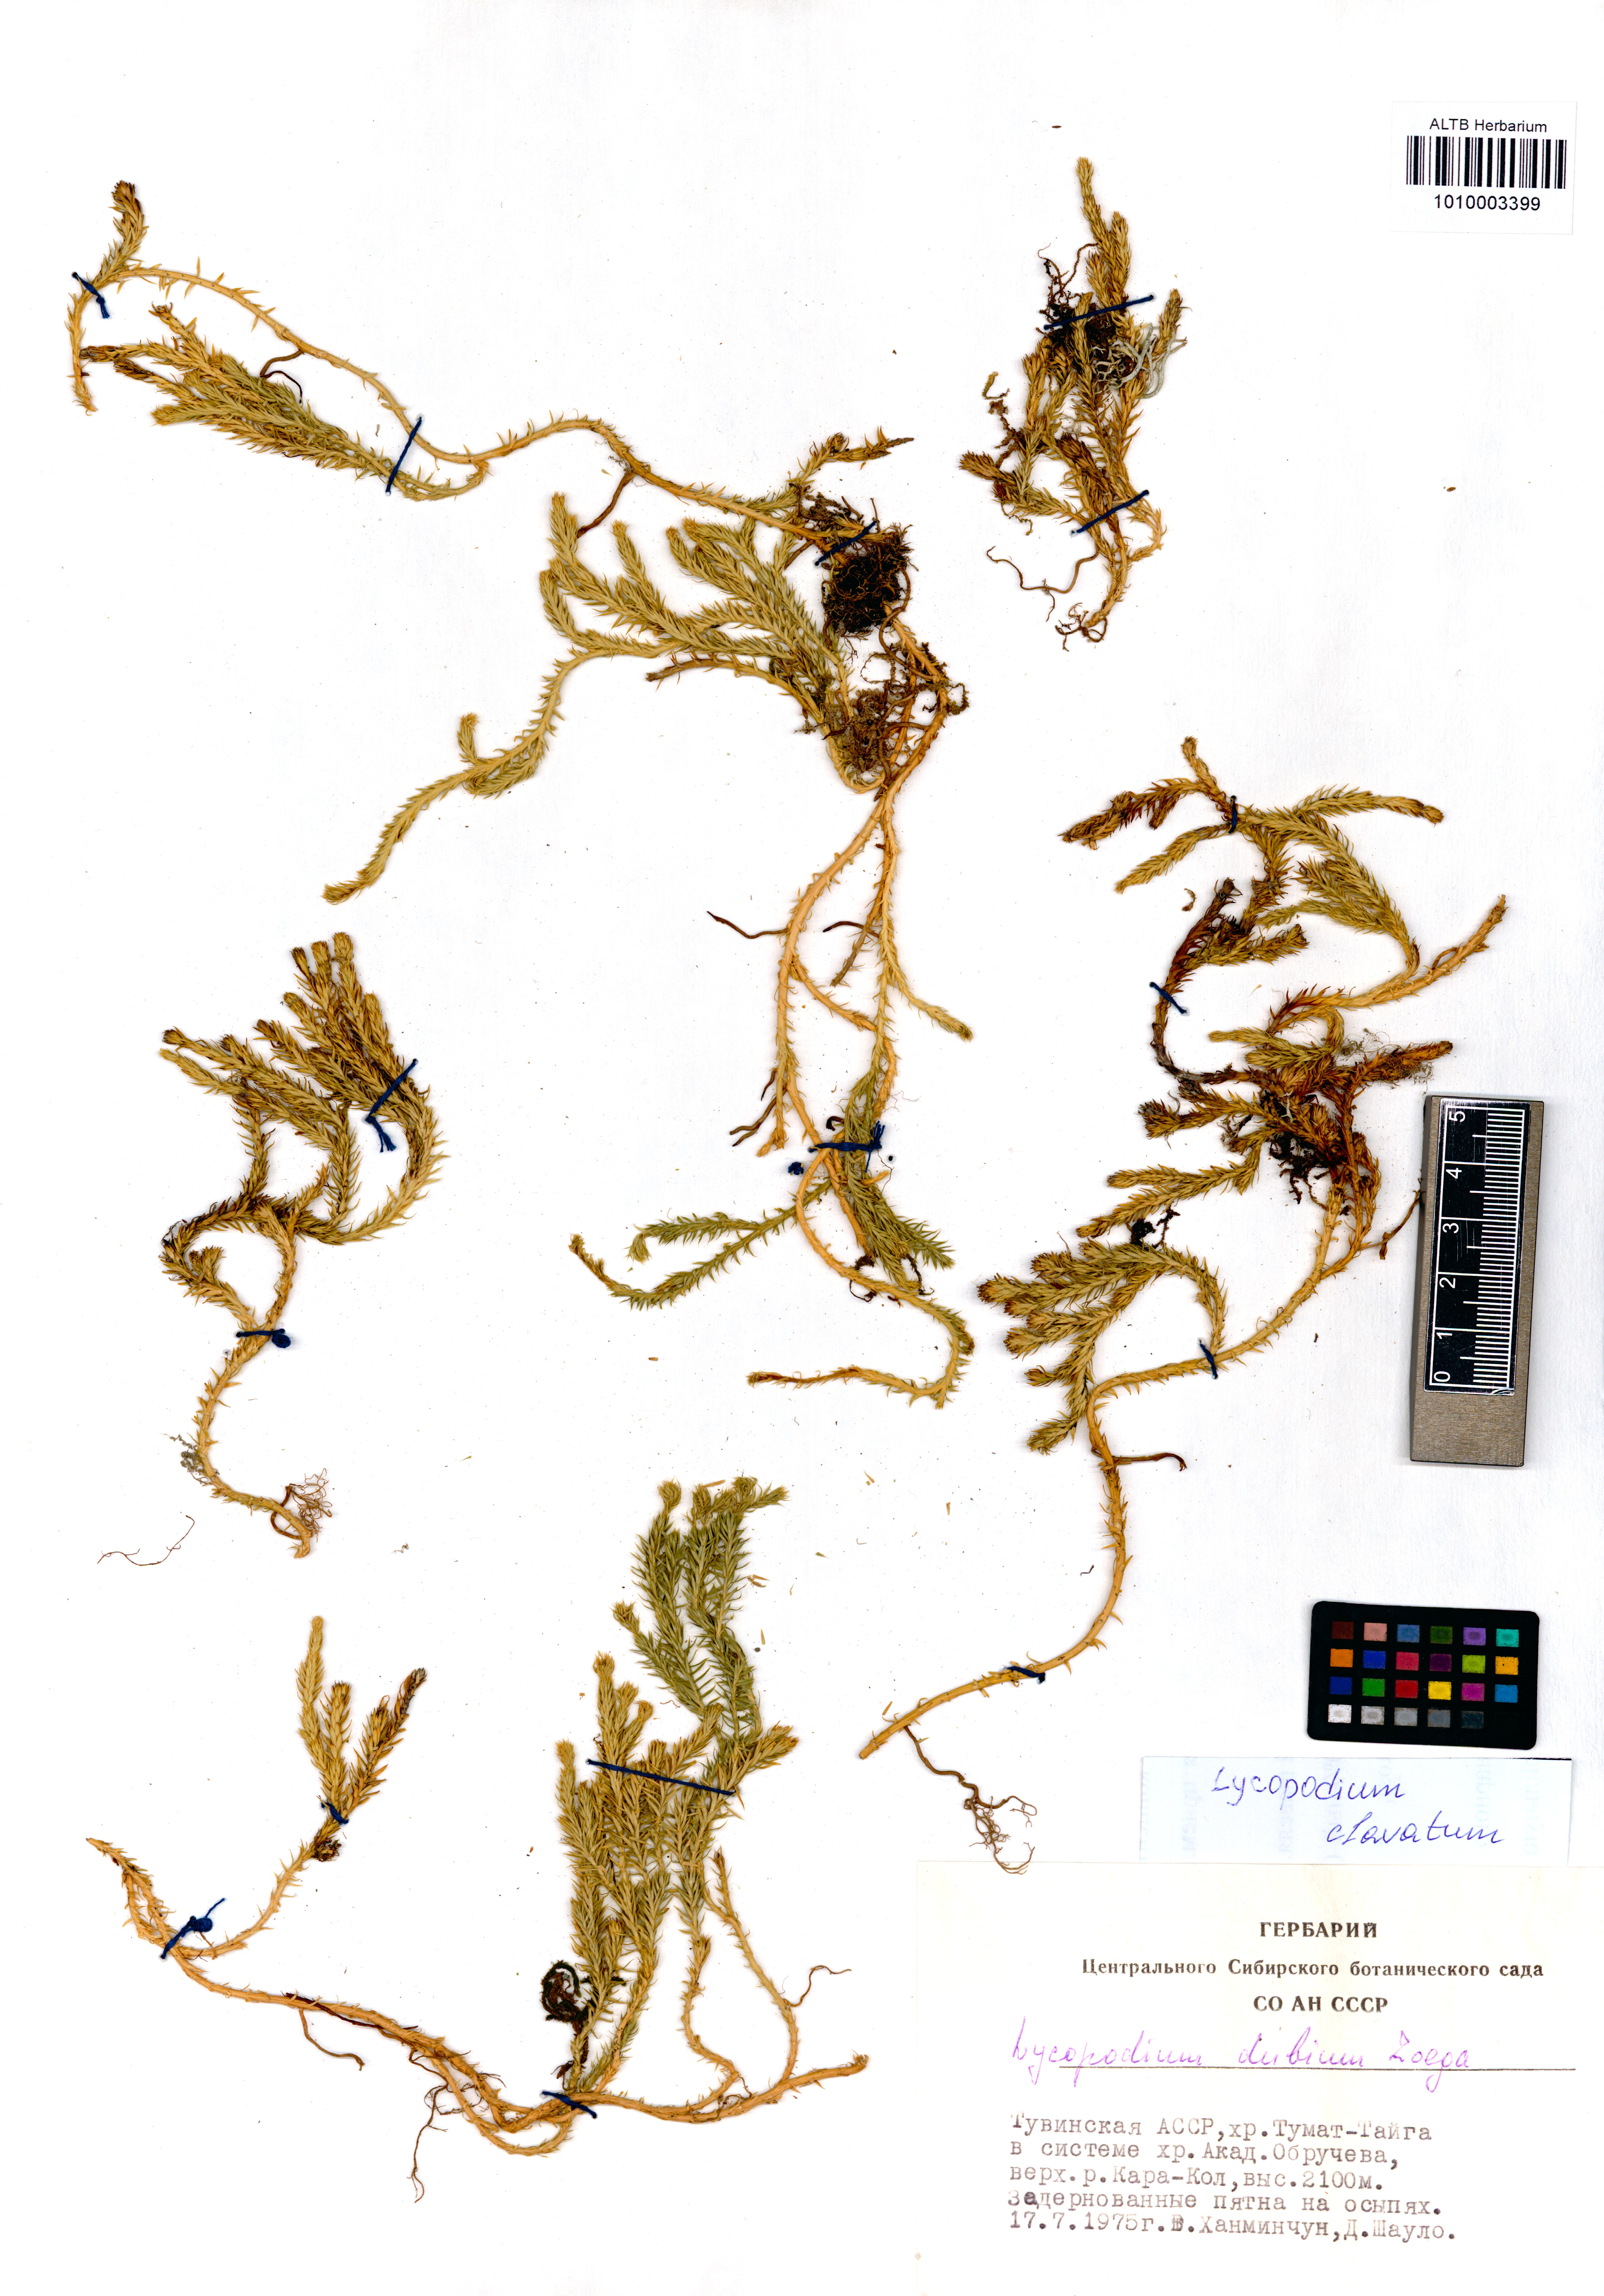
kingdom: Plantae
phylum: Tracheophyta
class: Lycopodiopsida
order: Lycopodiales
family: Lycopodiaceae
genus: Lycopodium
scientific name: Lycopodium clavatum
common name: Stag's-horn clubmoss
